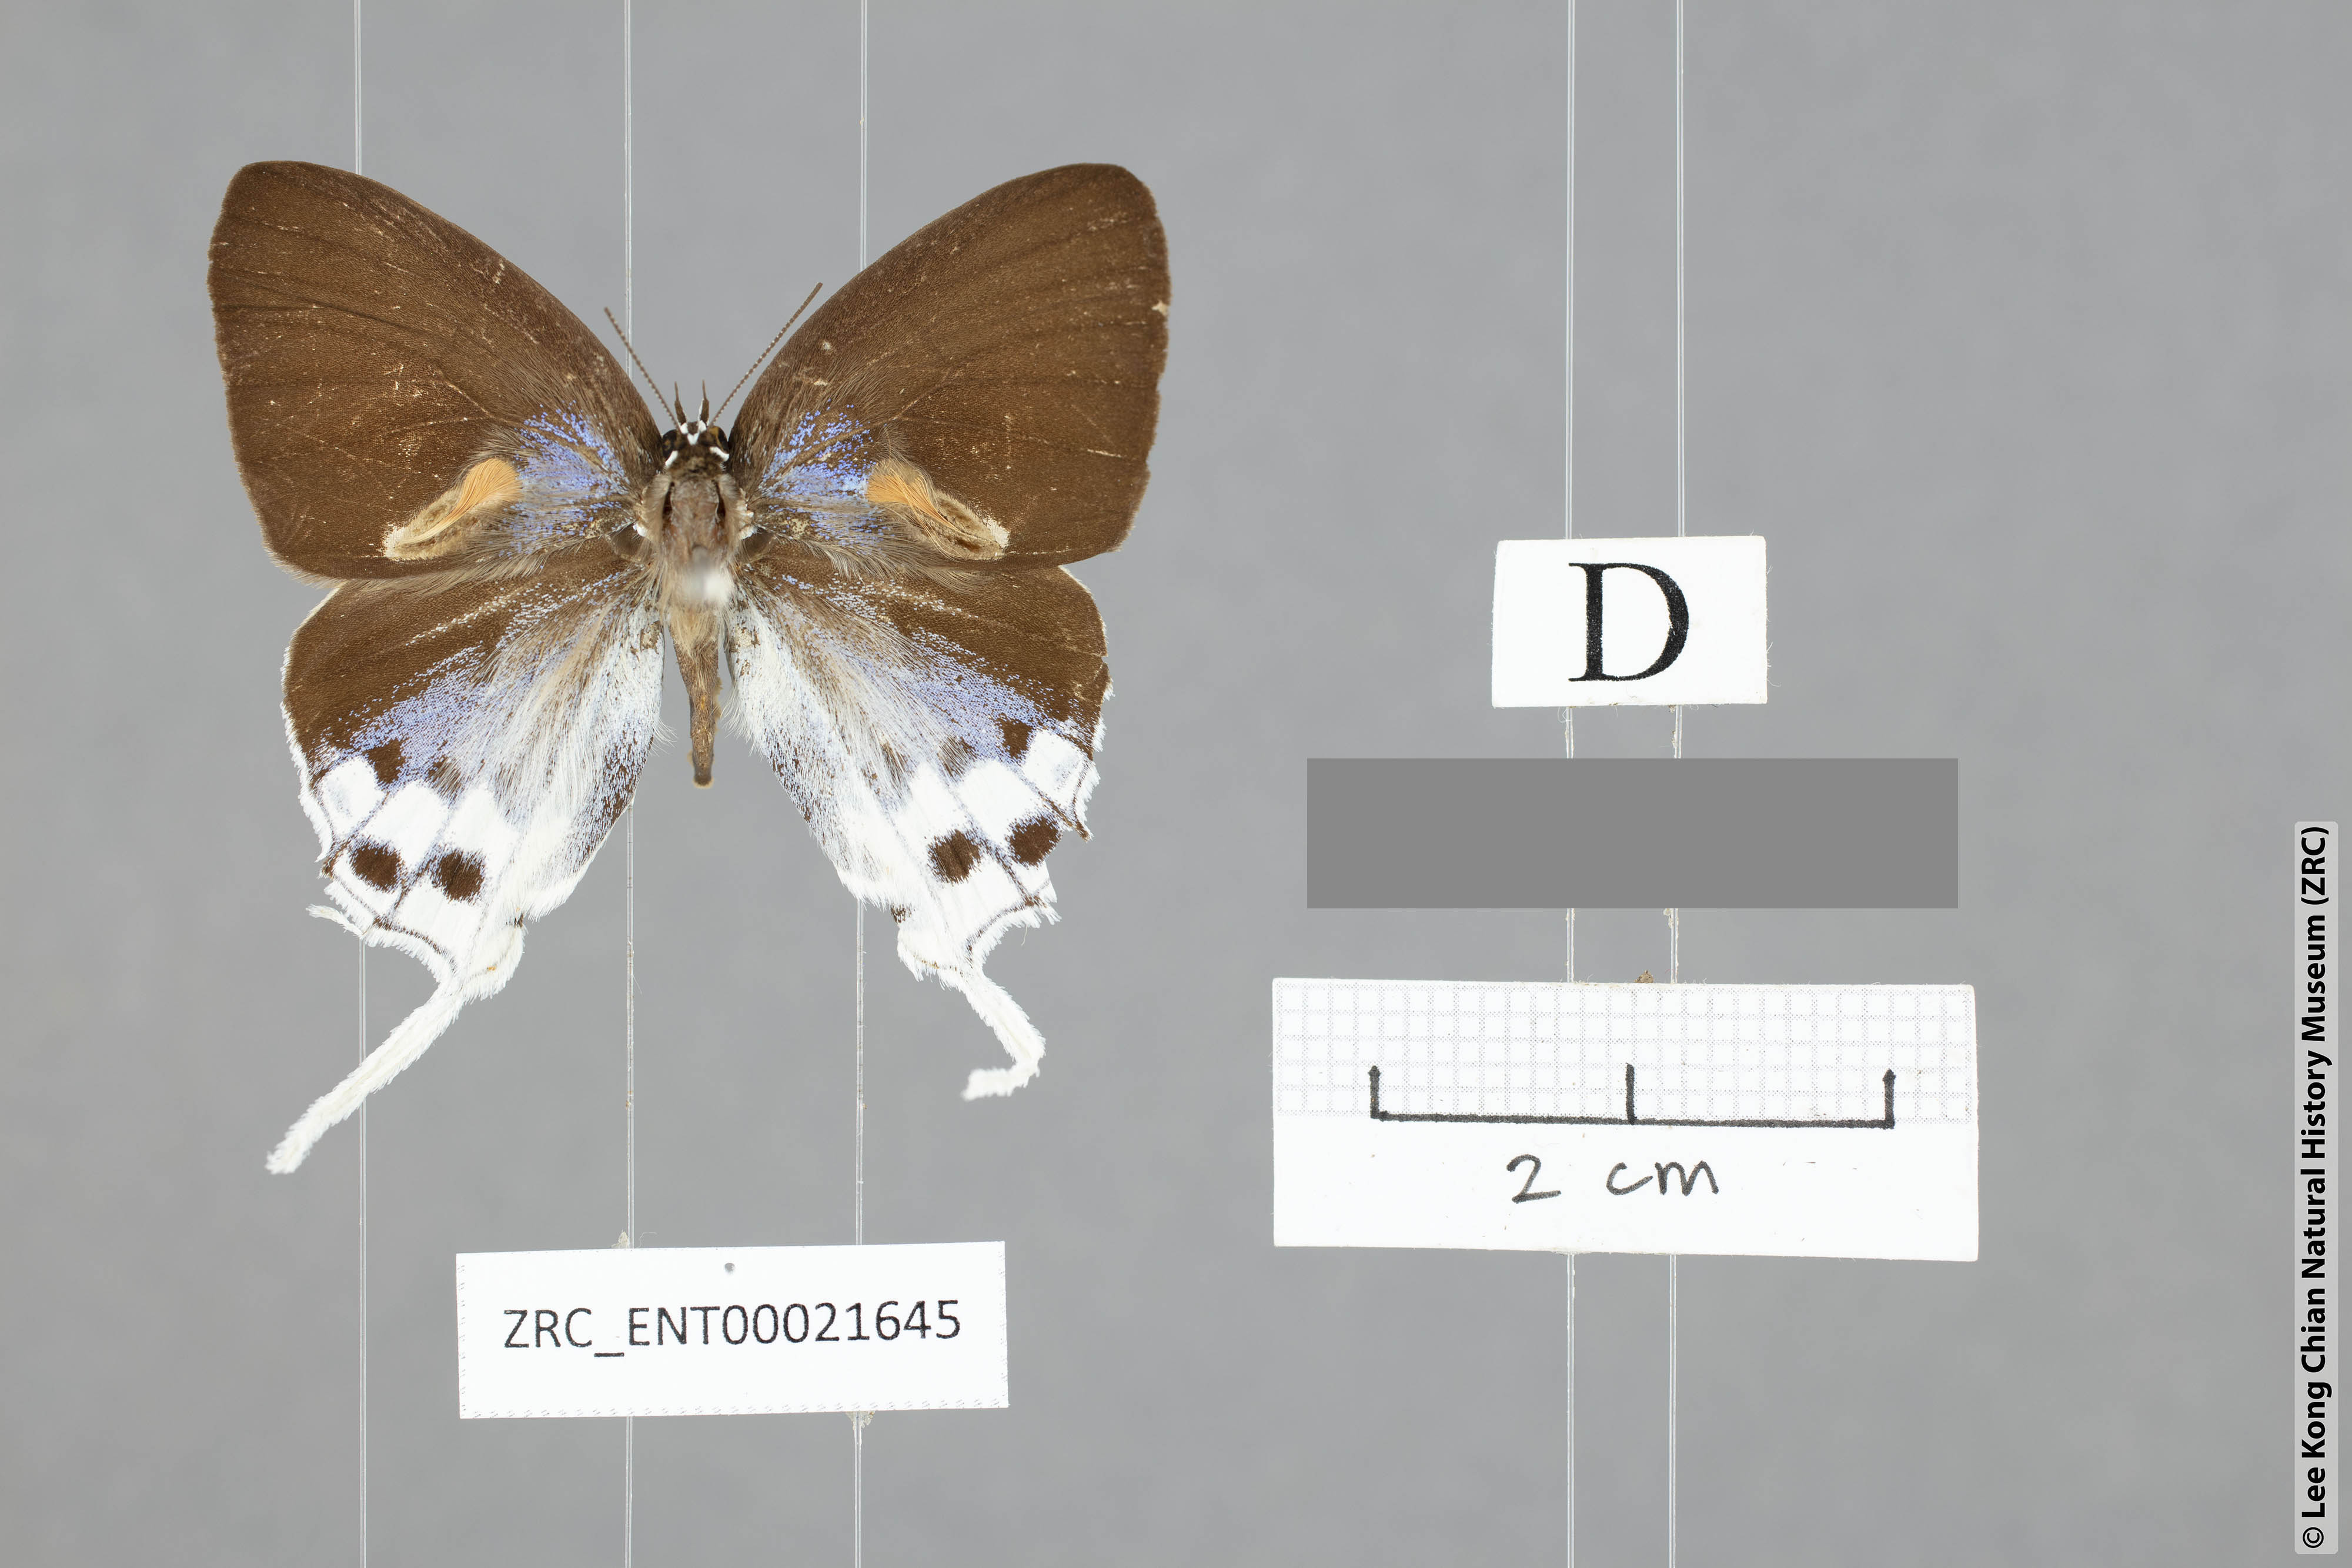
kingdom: Animalia
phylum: Arthropoda
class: Insecta
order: Lepidoptera
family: Lycaenidae
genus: Thrix
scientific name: Thrix
